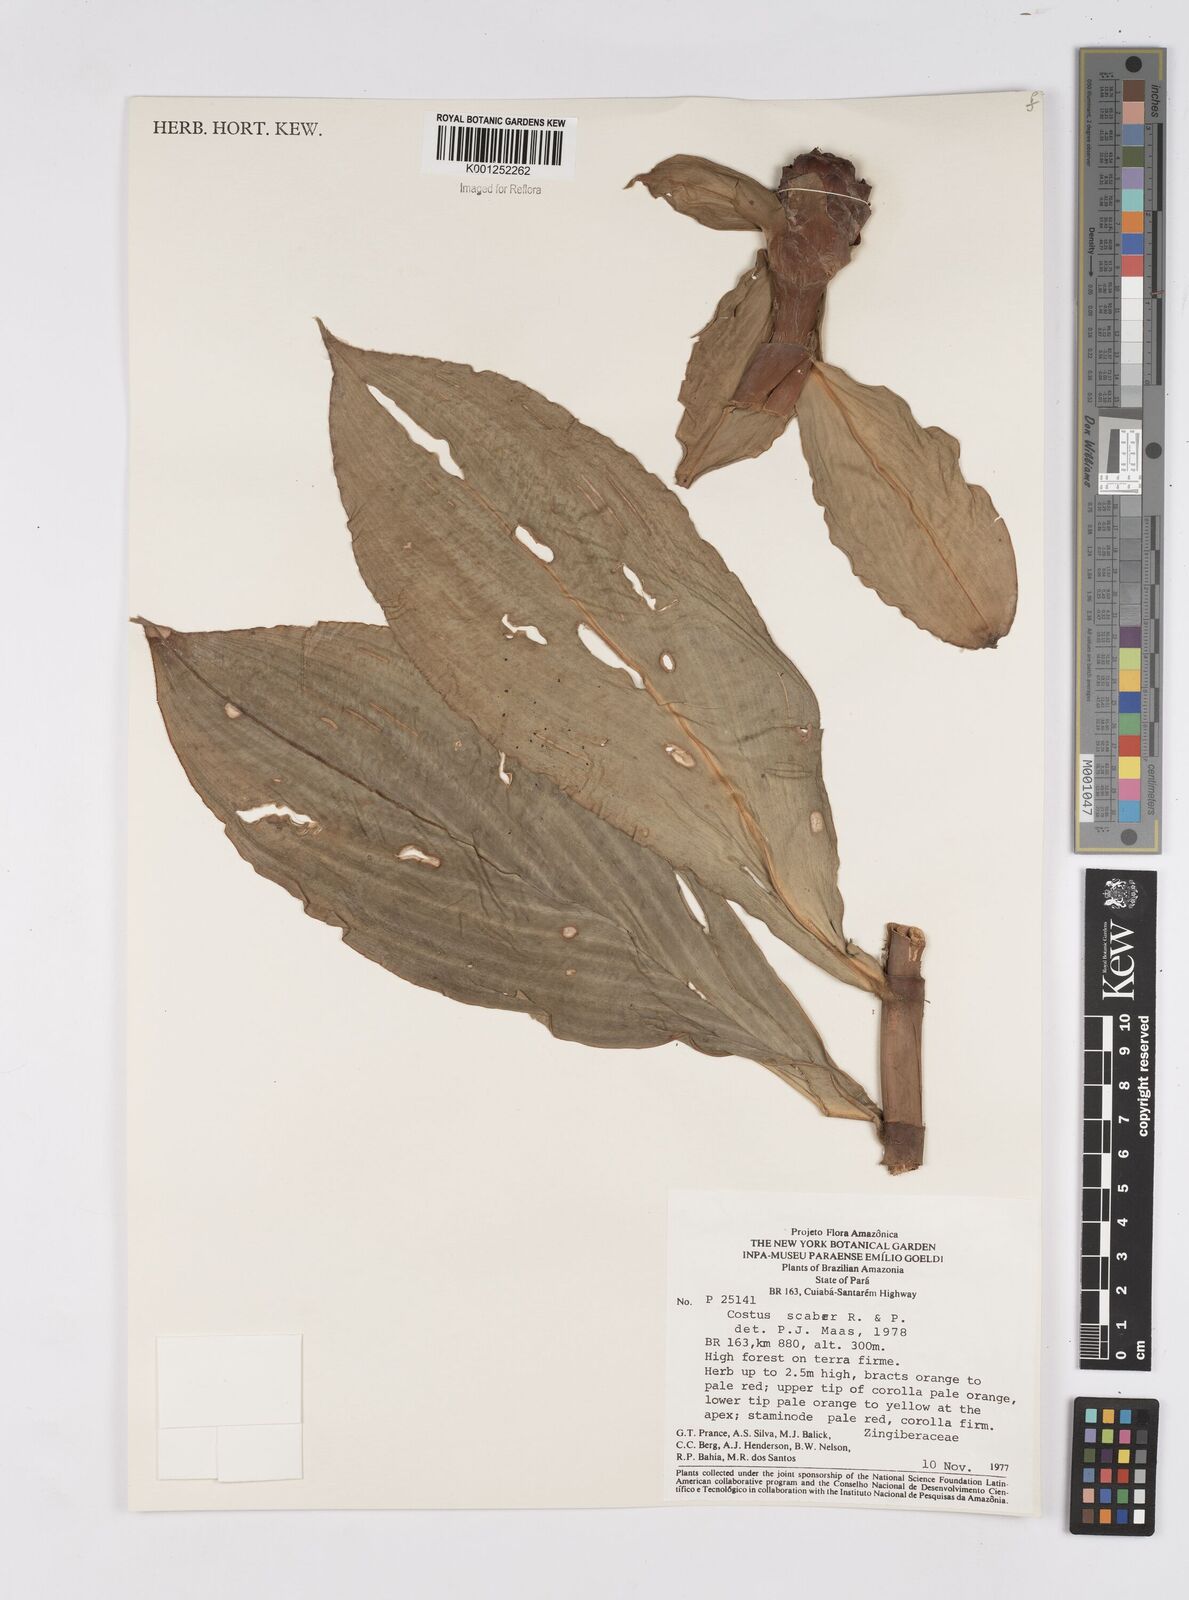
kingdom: Plantae
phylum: Tracheophyta
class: Liliopsida
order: Zingiberales
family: Costaceae
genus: Costus
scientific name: Costus scaber
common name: Spiral head ginger
